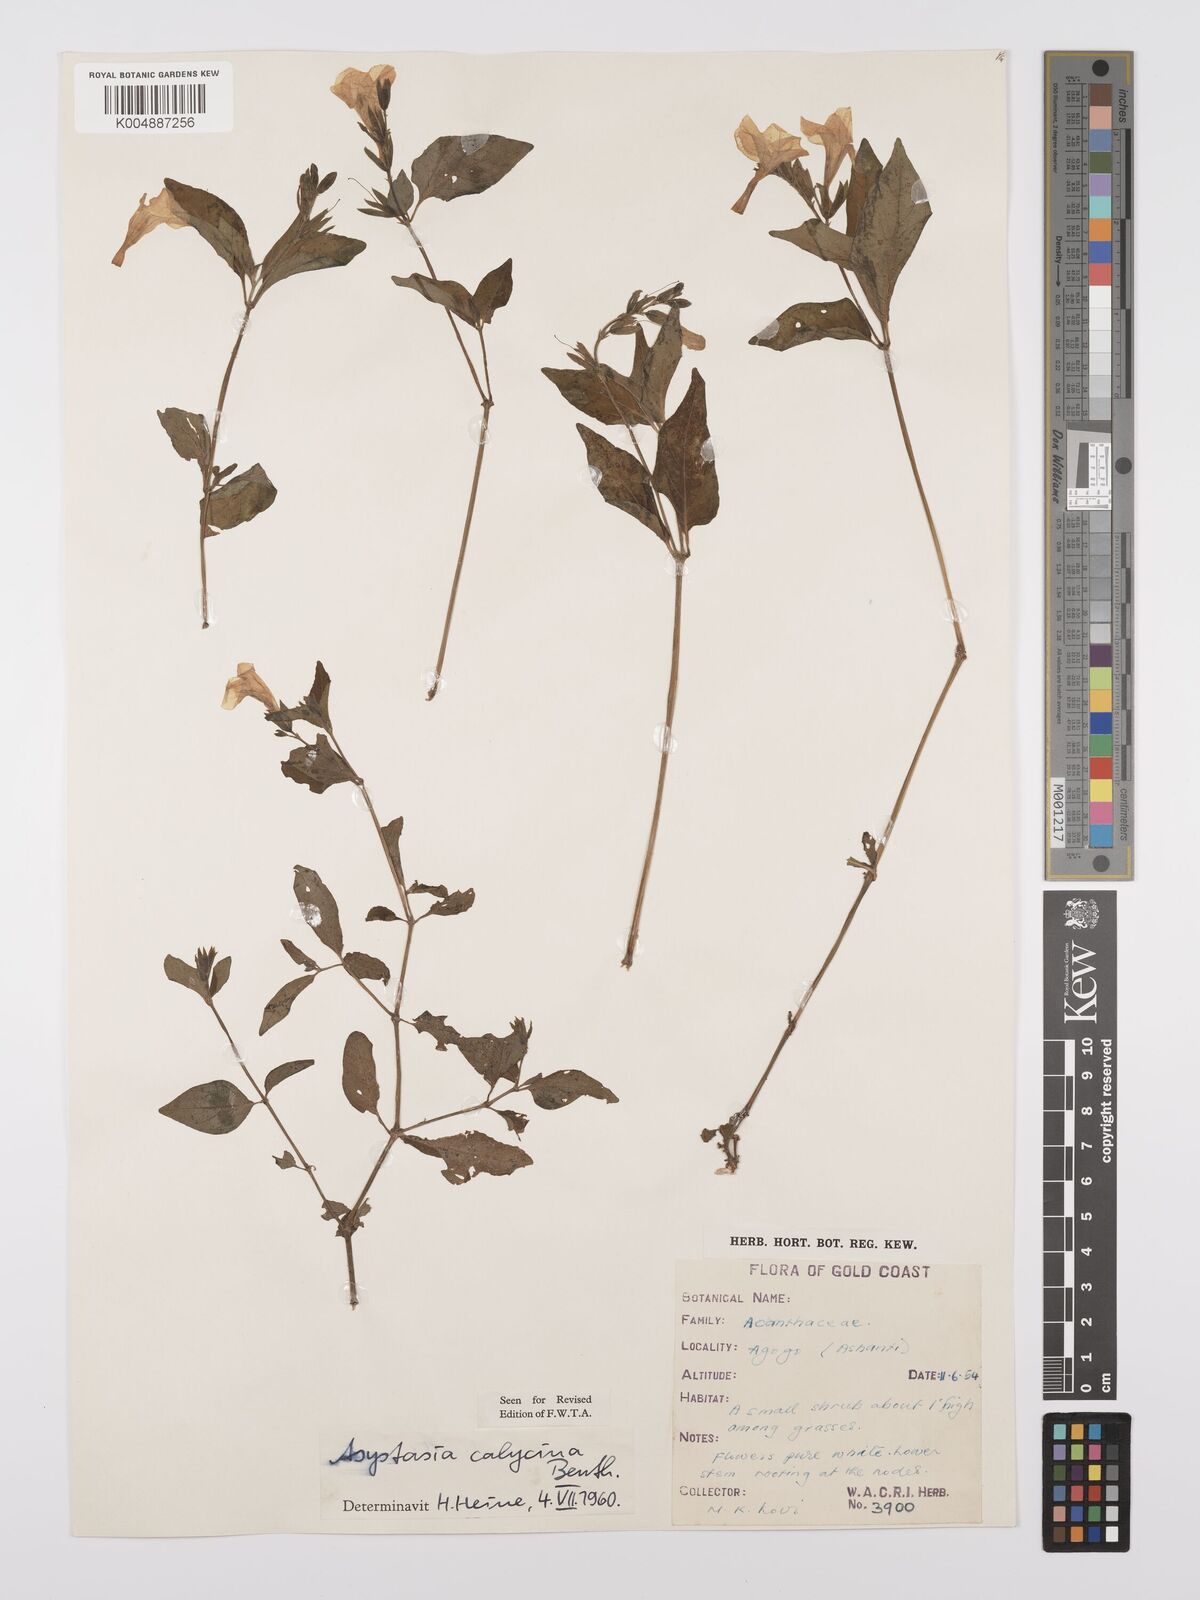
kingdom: Plantae
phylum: Tracheophyta
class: Magnoliopsida
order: Lamiales
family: Acanthaceae
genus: Asystasia
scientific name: Asystasia
